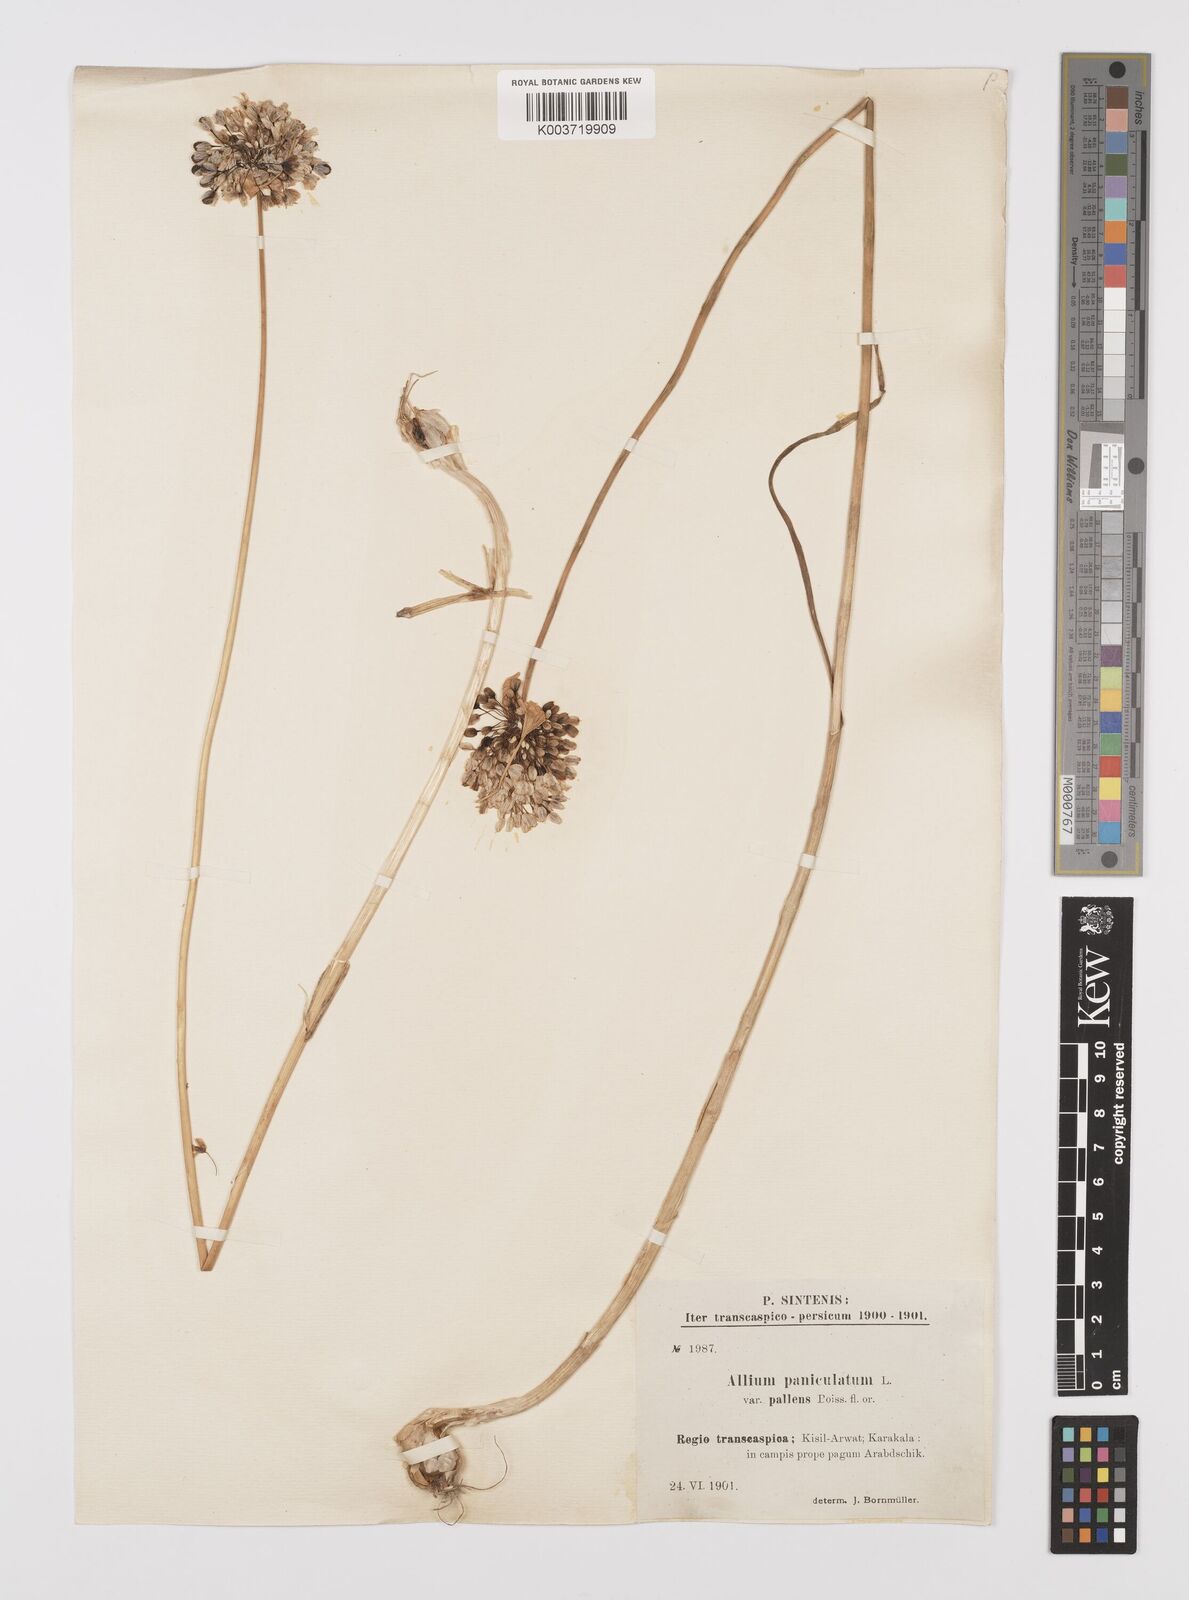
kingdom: Plantae
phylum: Tracheophyta
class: Liliopsida
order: Asparagales
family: Amaryllidaceae
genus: Allium
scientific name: Allium paniculatum
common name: Pale garlic
